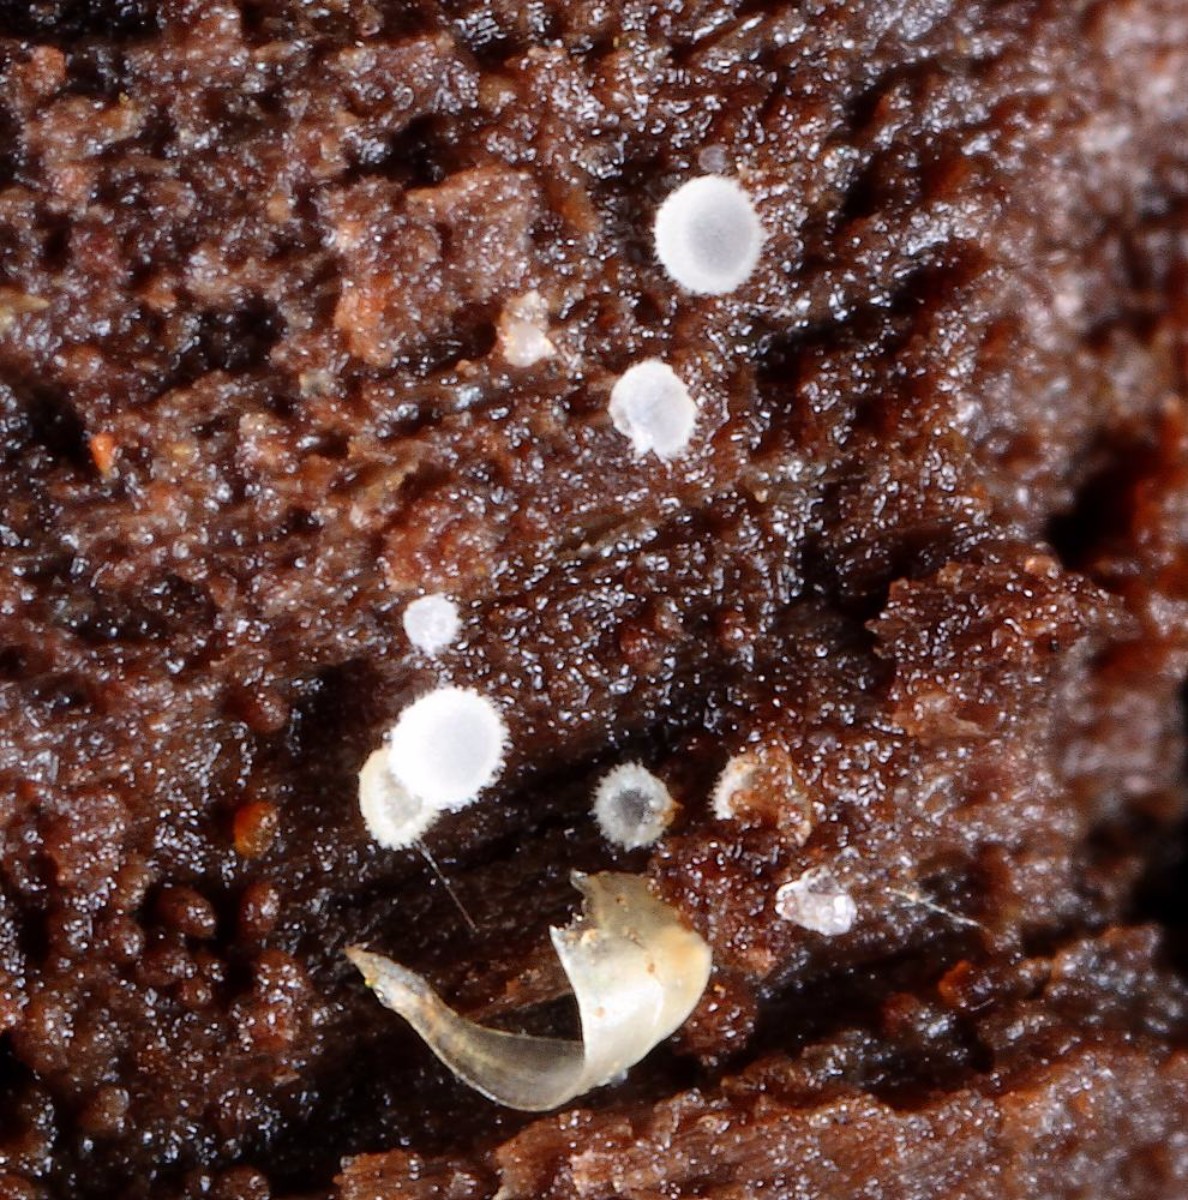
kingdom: Fungi
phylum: Ascomycota
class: Leotiomycetes
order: Helotiales
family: Hyaloscyphaceae
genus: Hyaloscypha
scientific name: Hyaloscypha leucostigma
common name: hvid klarskive
